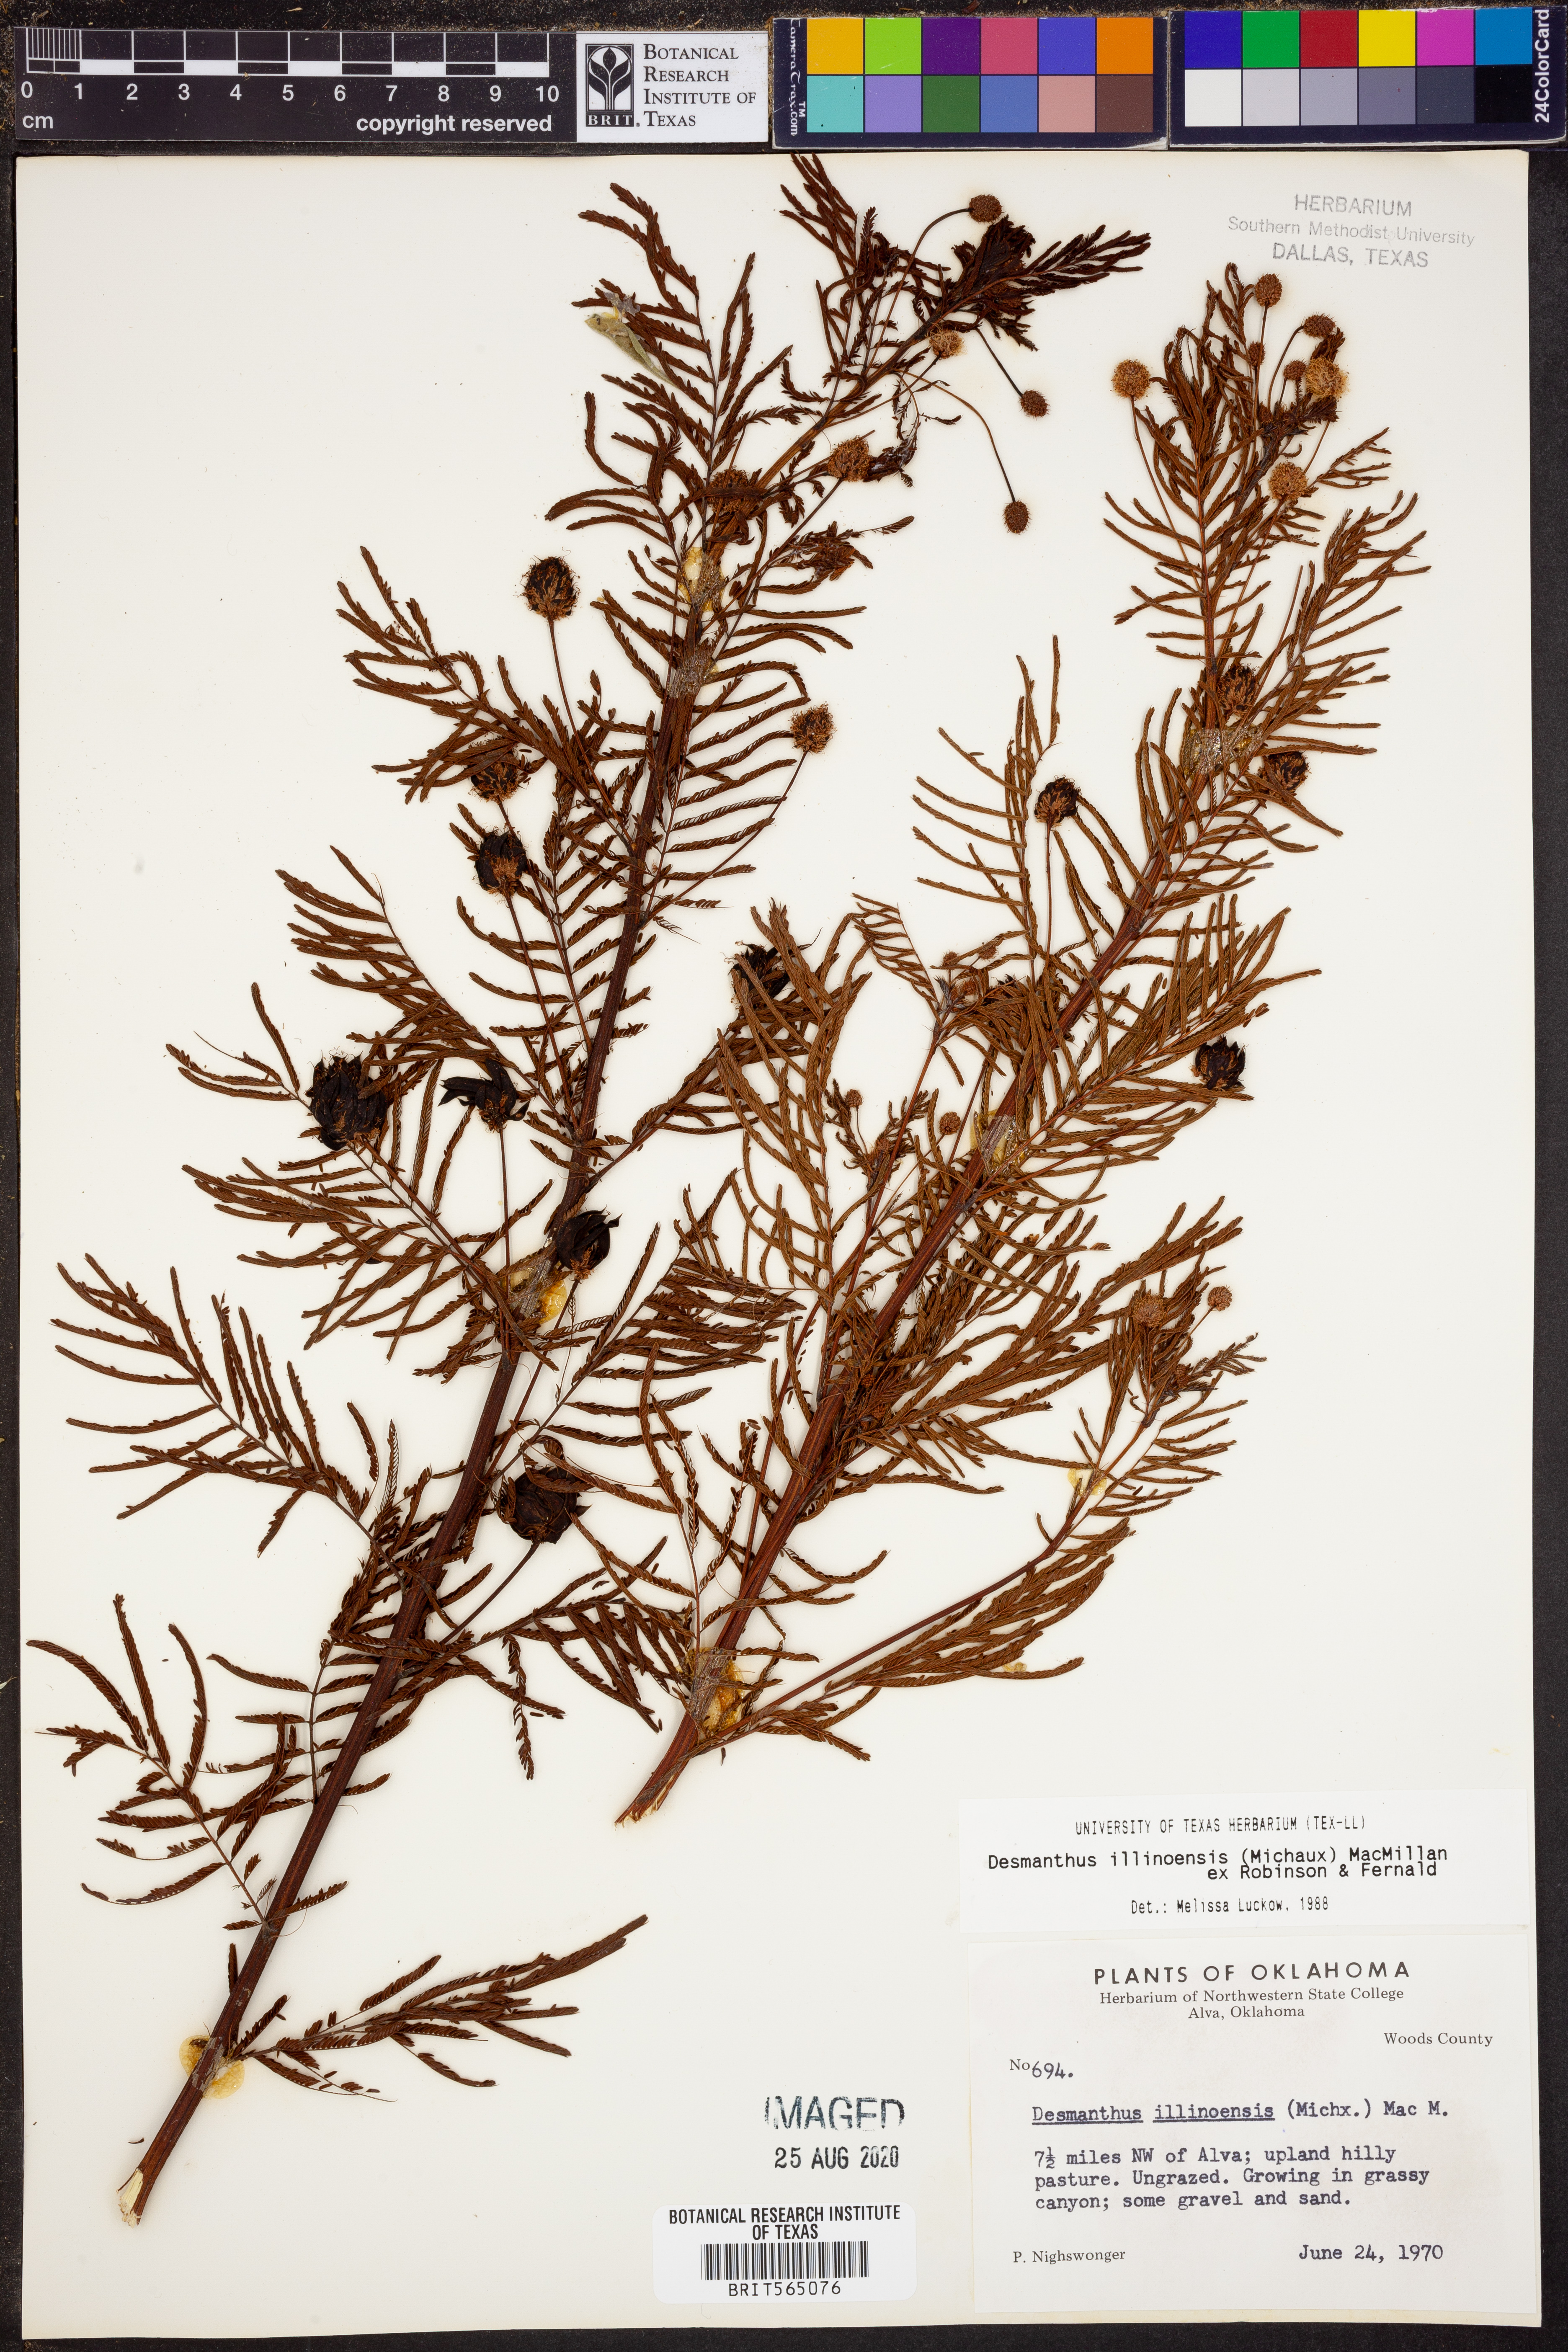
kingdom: Plantae
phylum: Tracheophyta
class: Magnoliopsida
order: Fabales
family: Fabaceae
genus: Desmanthus
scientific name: Desmanthus illinoensis
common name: Illinois bundle-flower
